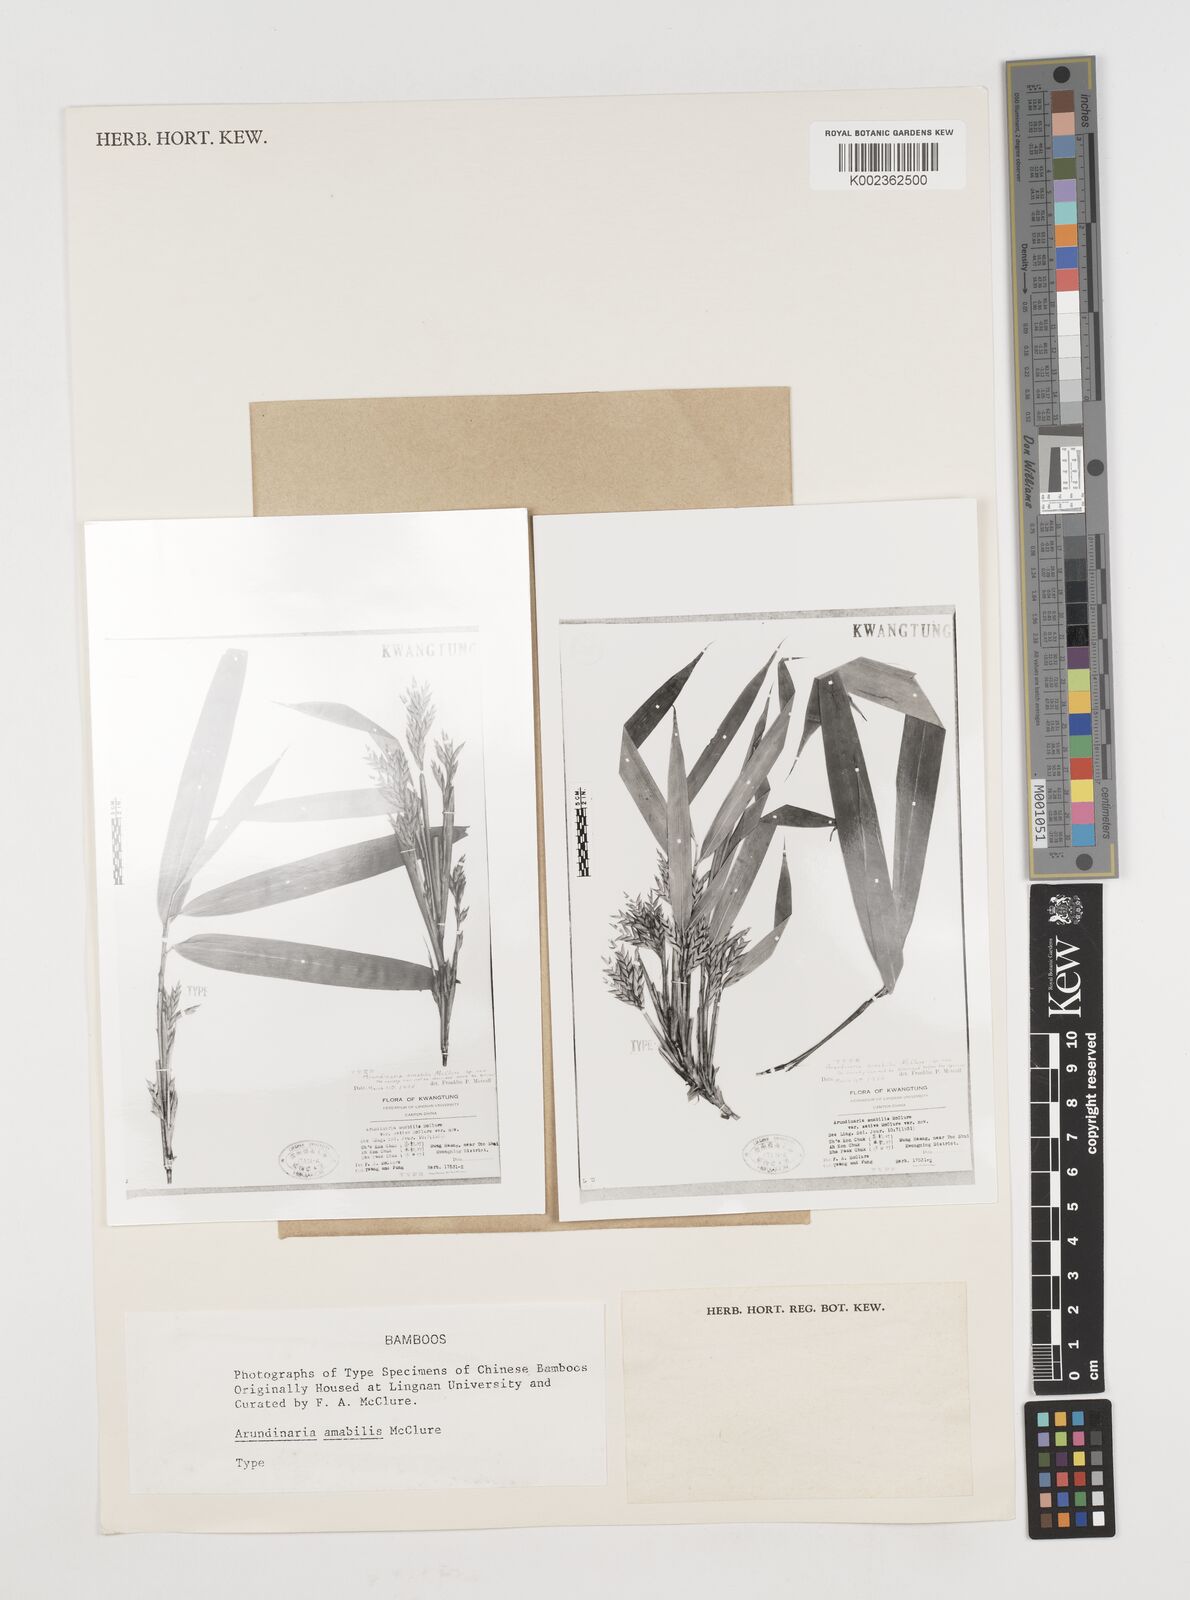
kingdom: Plantae
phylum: Tracheophyta
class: Liliopsida
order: Poales
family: Poaceae
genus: Pseudosasa
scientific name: Pseudosasa amabilis
